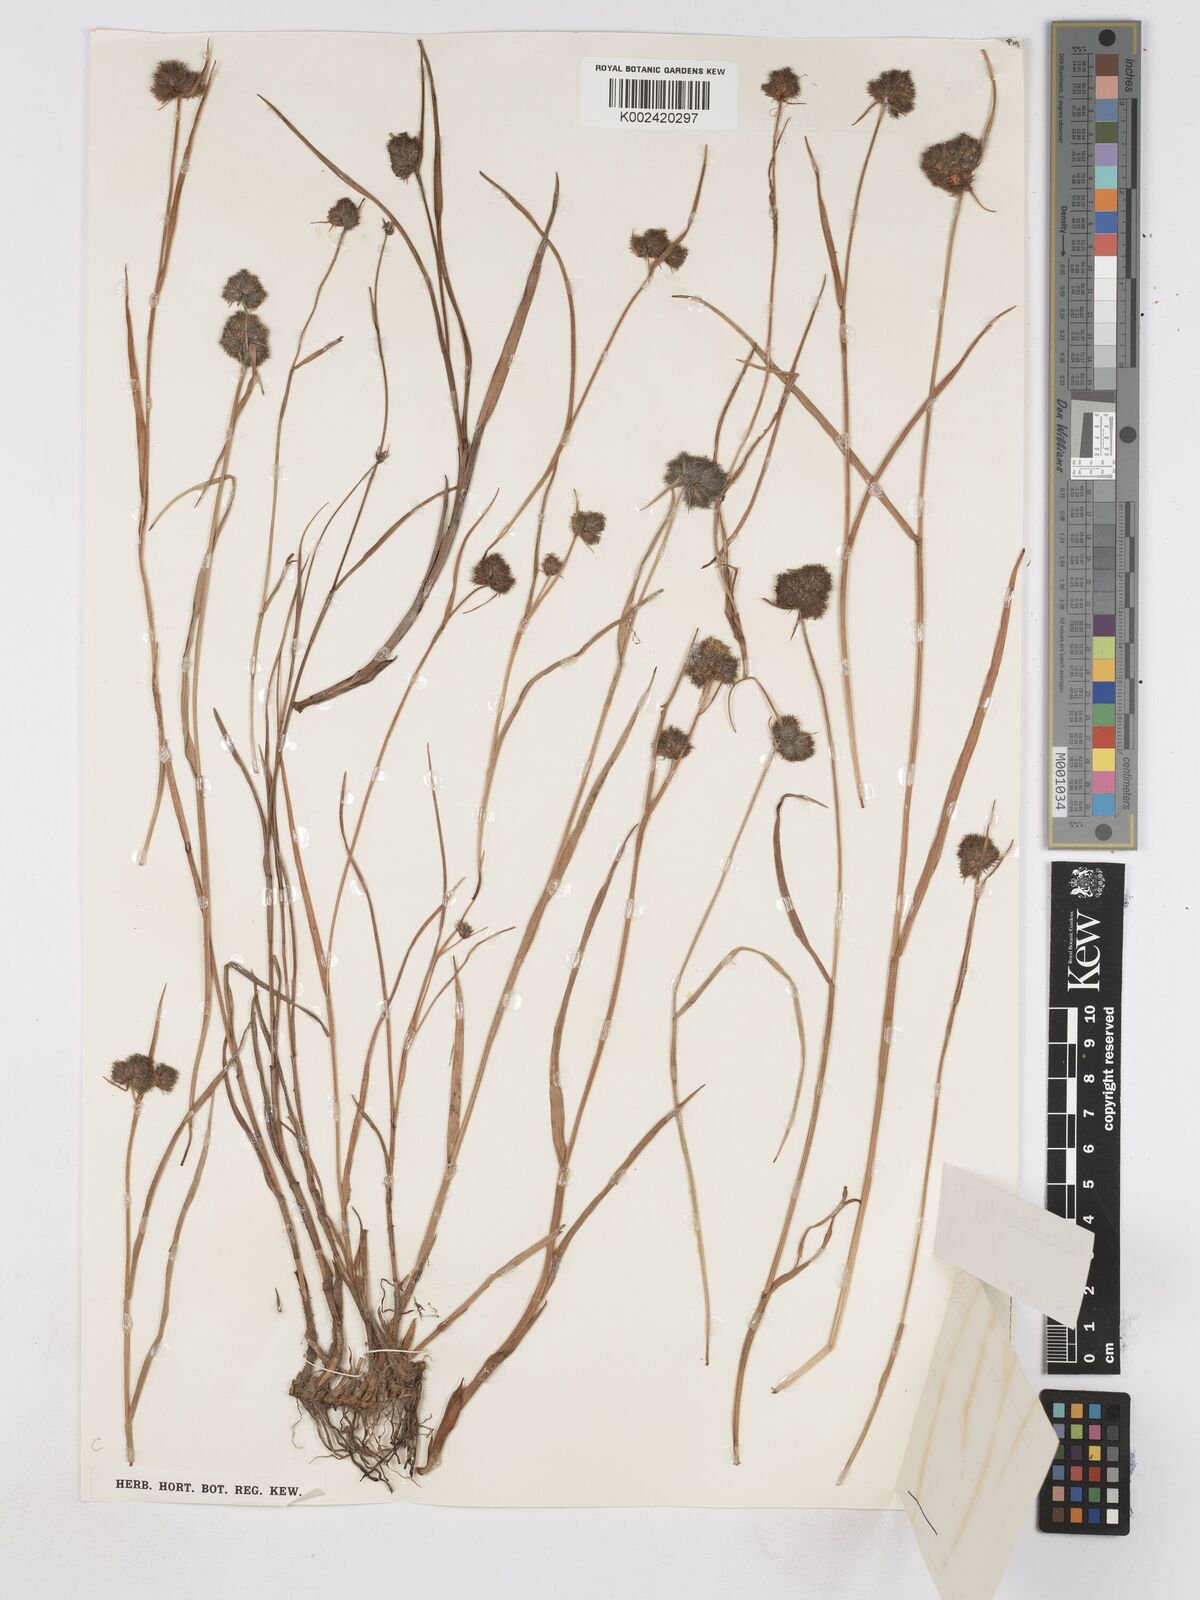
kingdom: Plantae
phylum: Tracheophyta
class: Liliopsida
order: Poales
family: Cyperaceae
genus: Fuirena
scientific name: Fuirena hirsuta
